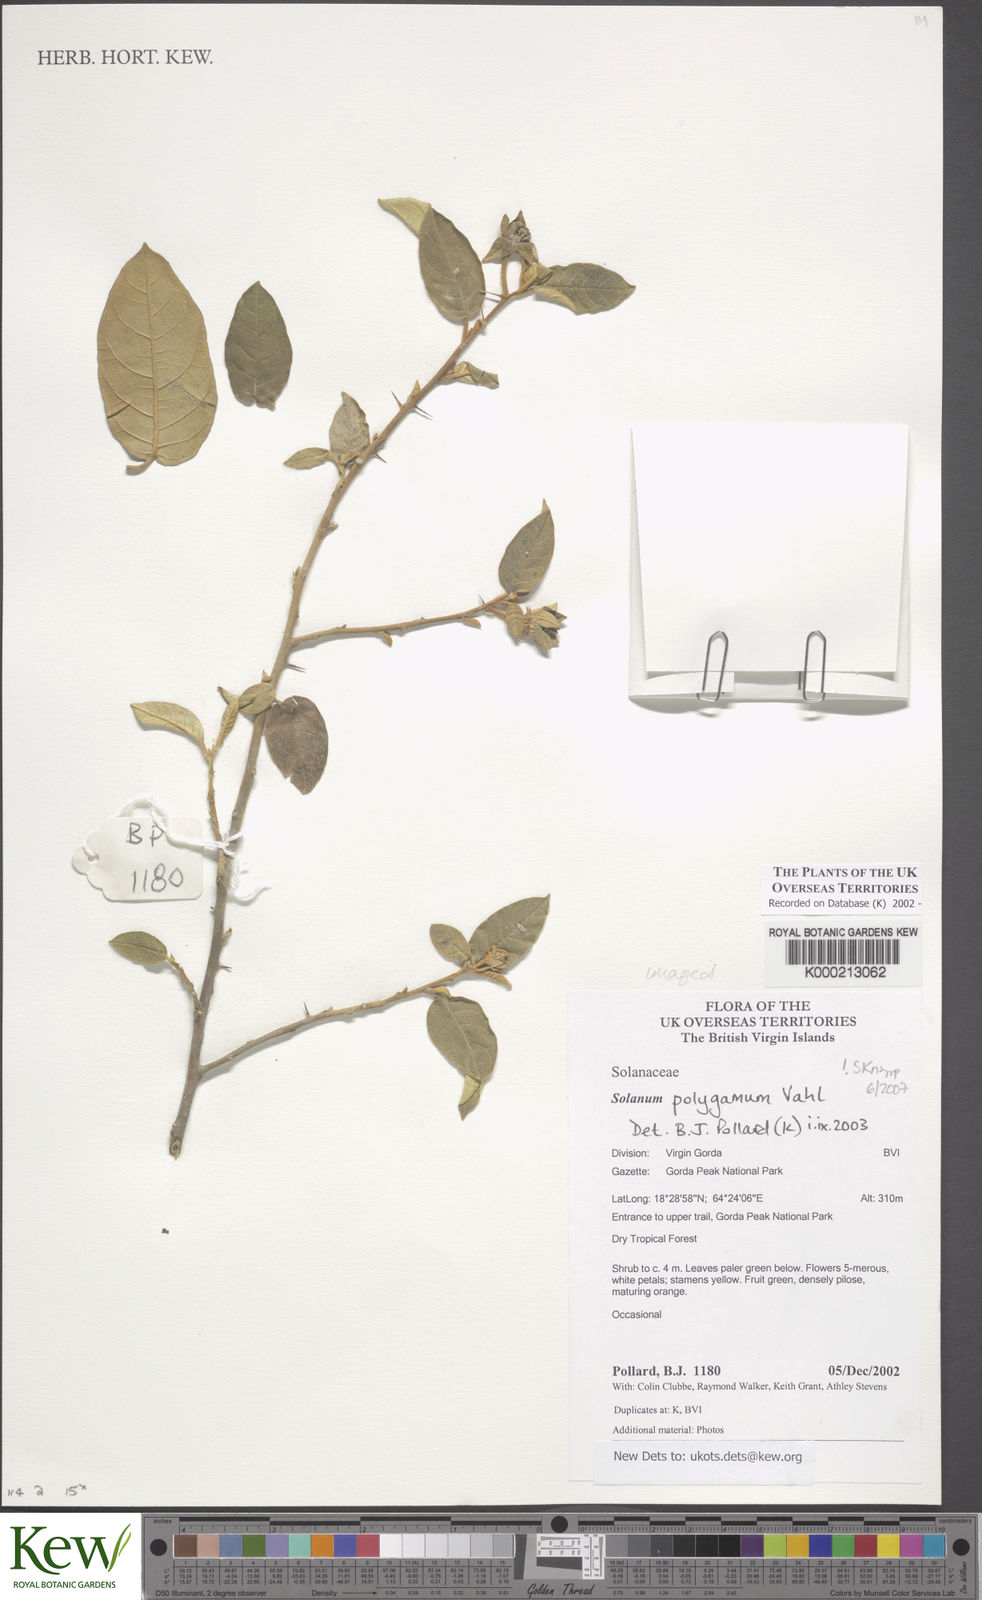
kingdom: Plantae
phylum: Tracheophyta
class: Magnoliopsida
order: Solanales
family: Solanaceae
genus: Solanum
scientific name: Solanum polygamum
